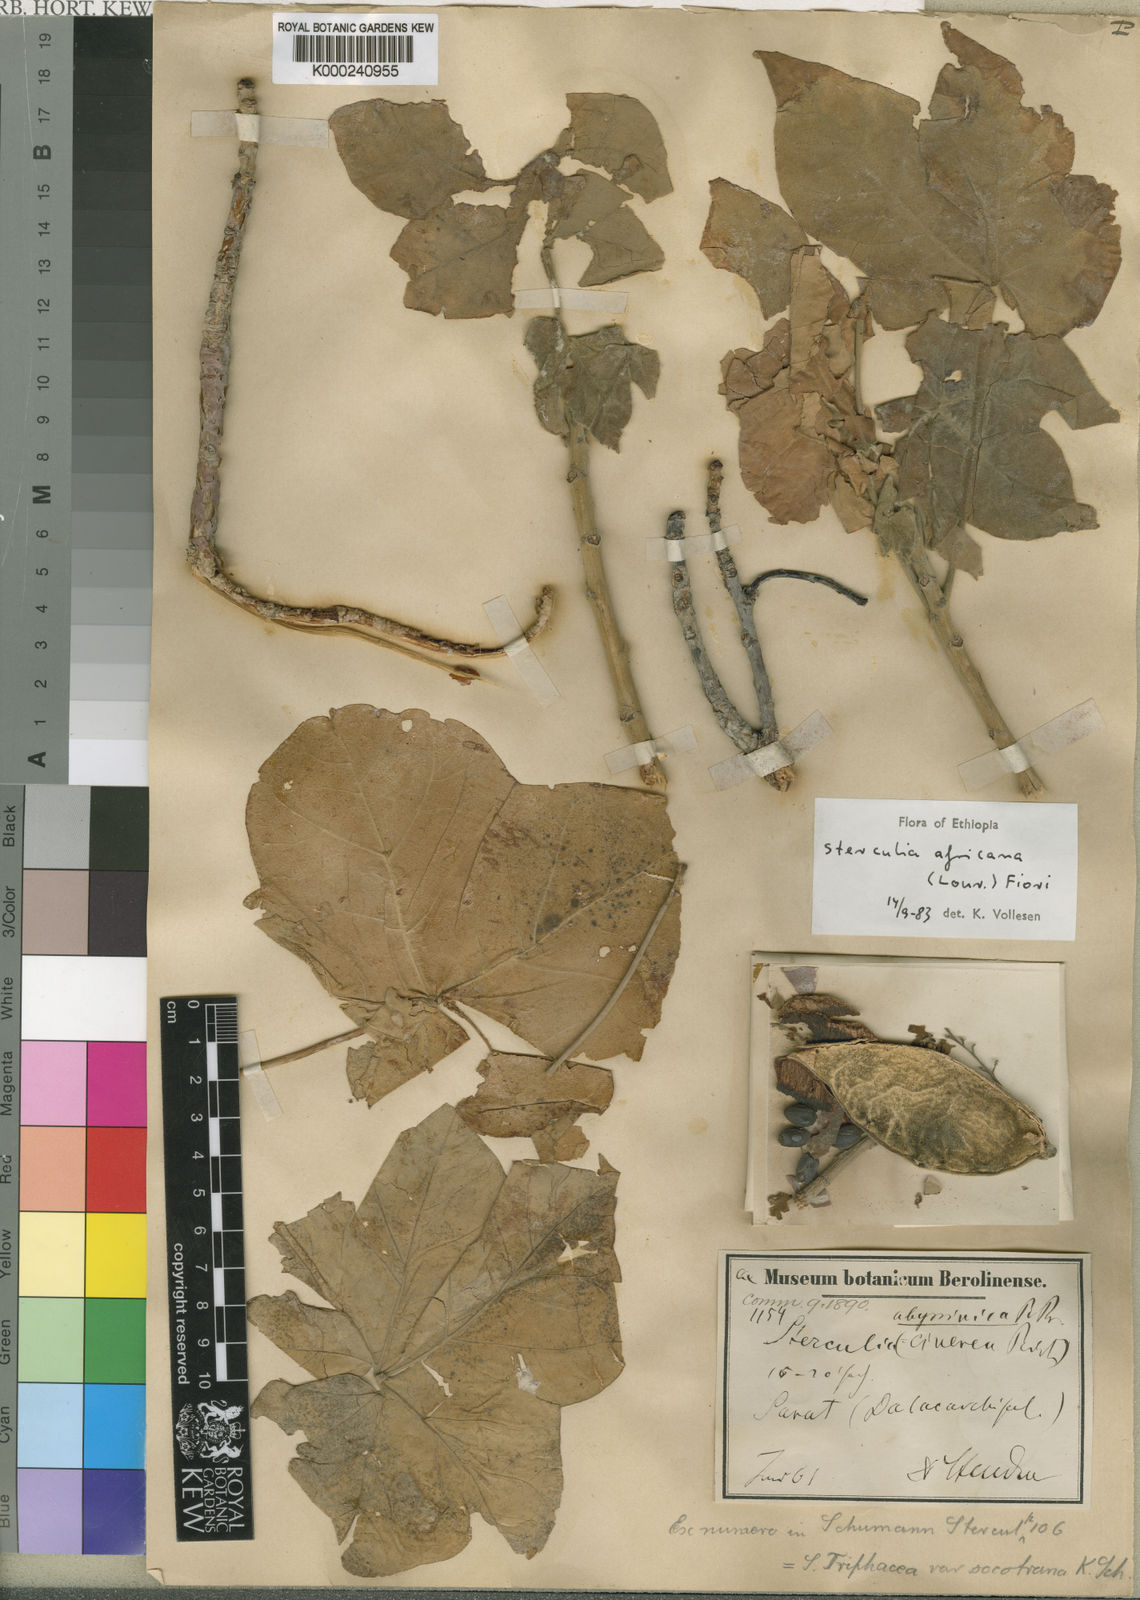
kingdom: Plantae
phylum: Tracheophyta
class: Magnoliopsida
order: Malvales
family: Malvaceae
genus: Sterculia
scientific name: Sterculia africana
